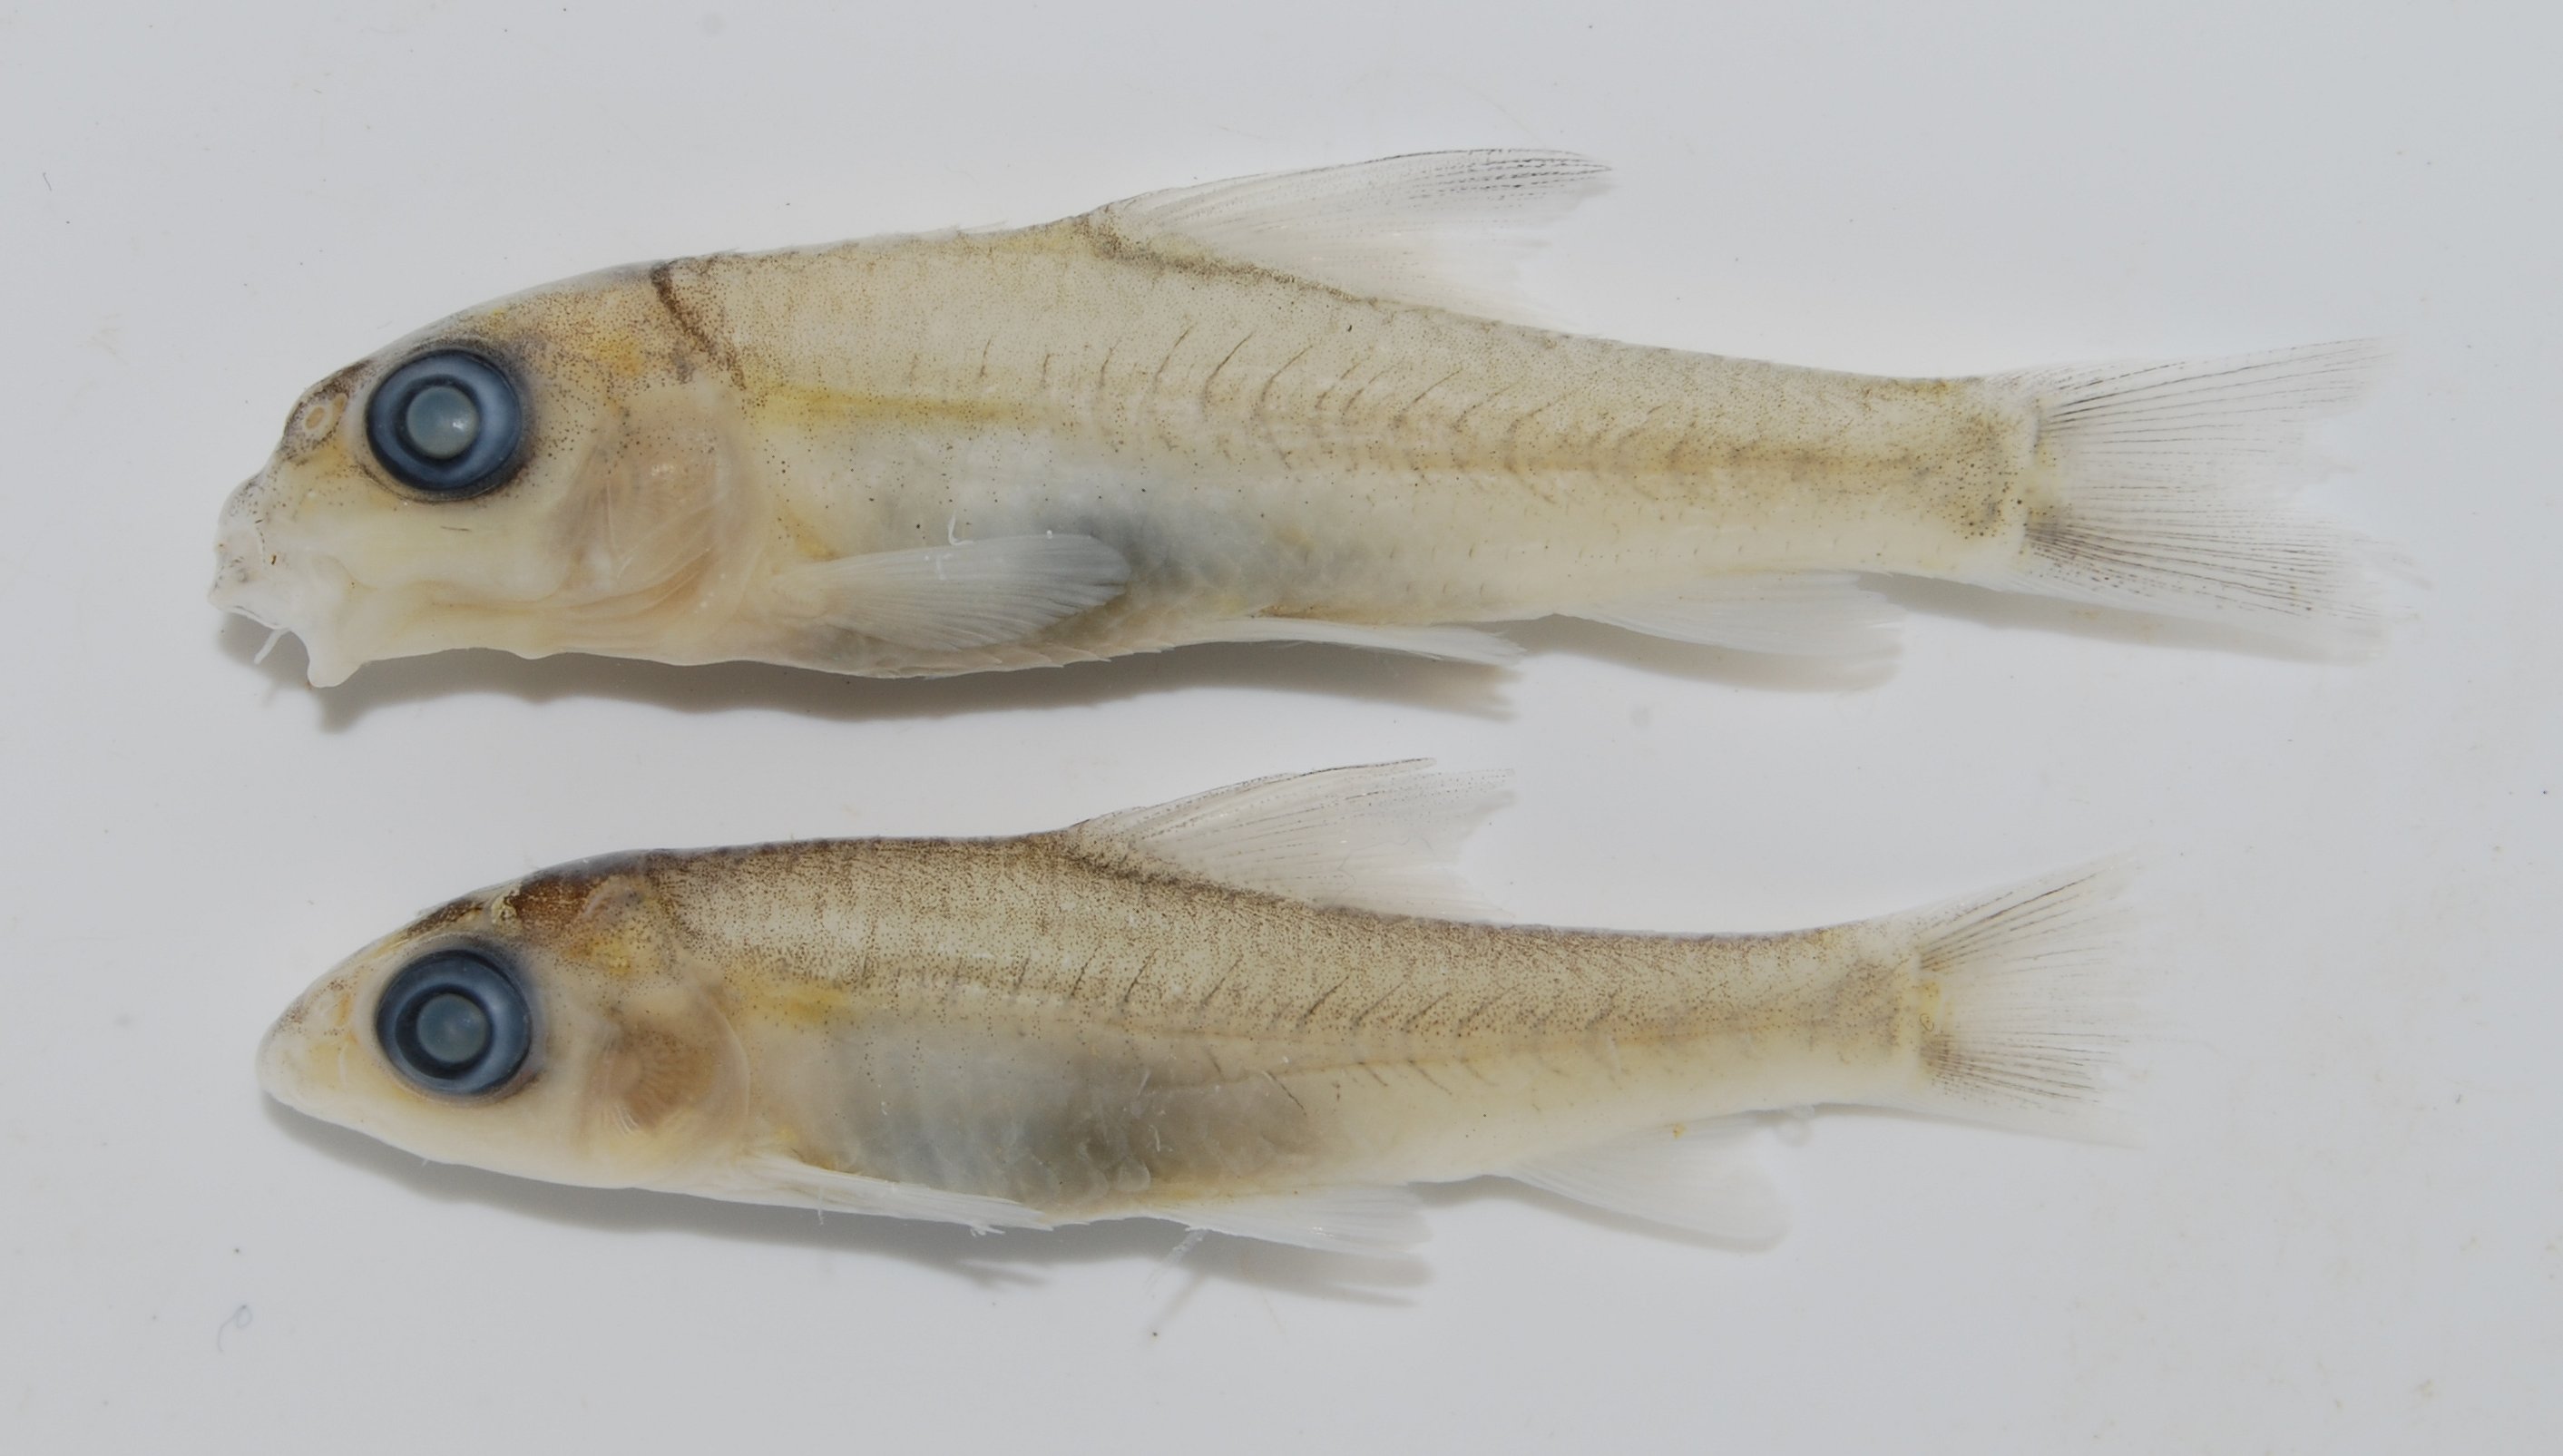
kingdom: Animalia
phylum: Chordata
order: Cypriniformes
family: Cyprinidae
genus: Labeobarbus
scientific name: Labeobarbus
